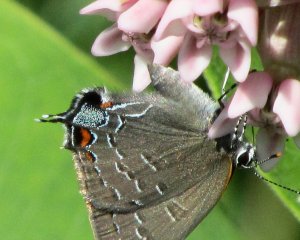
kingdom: Animalia
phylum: Arthropoda
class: Insecta
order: Lepidoptera
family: Lycaenidae
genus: Satyrium
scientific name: Satyrium calanus
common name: Banded Hairstreak
